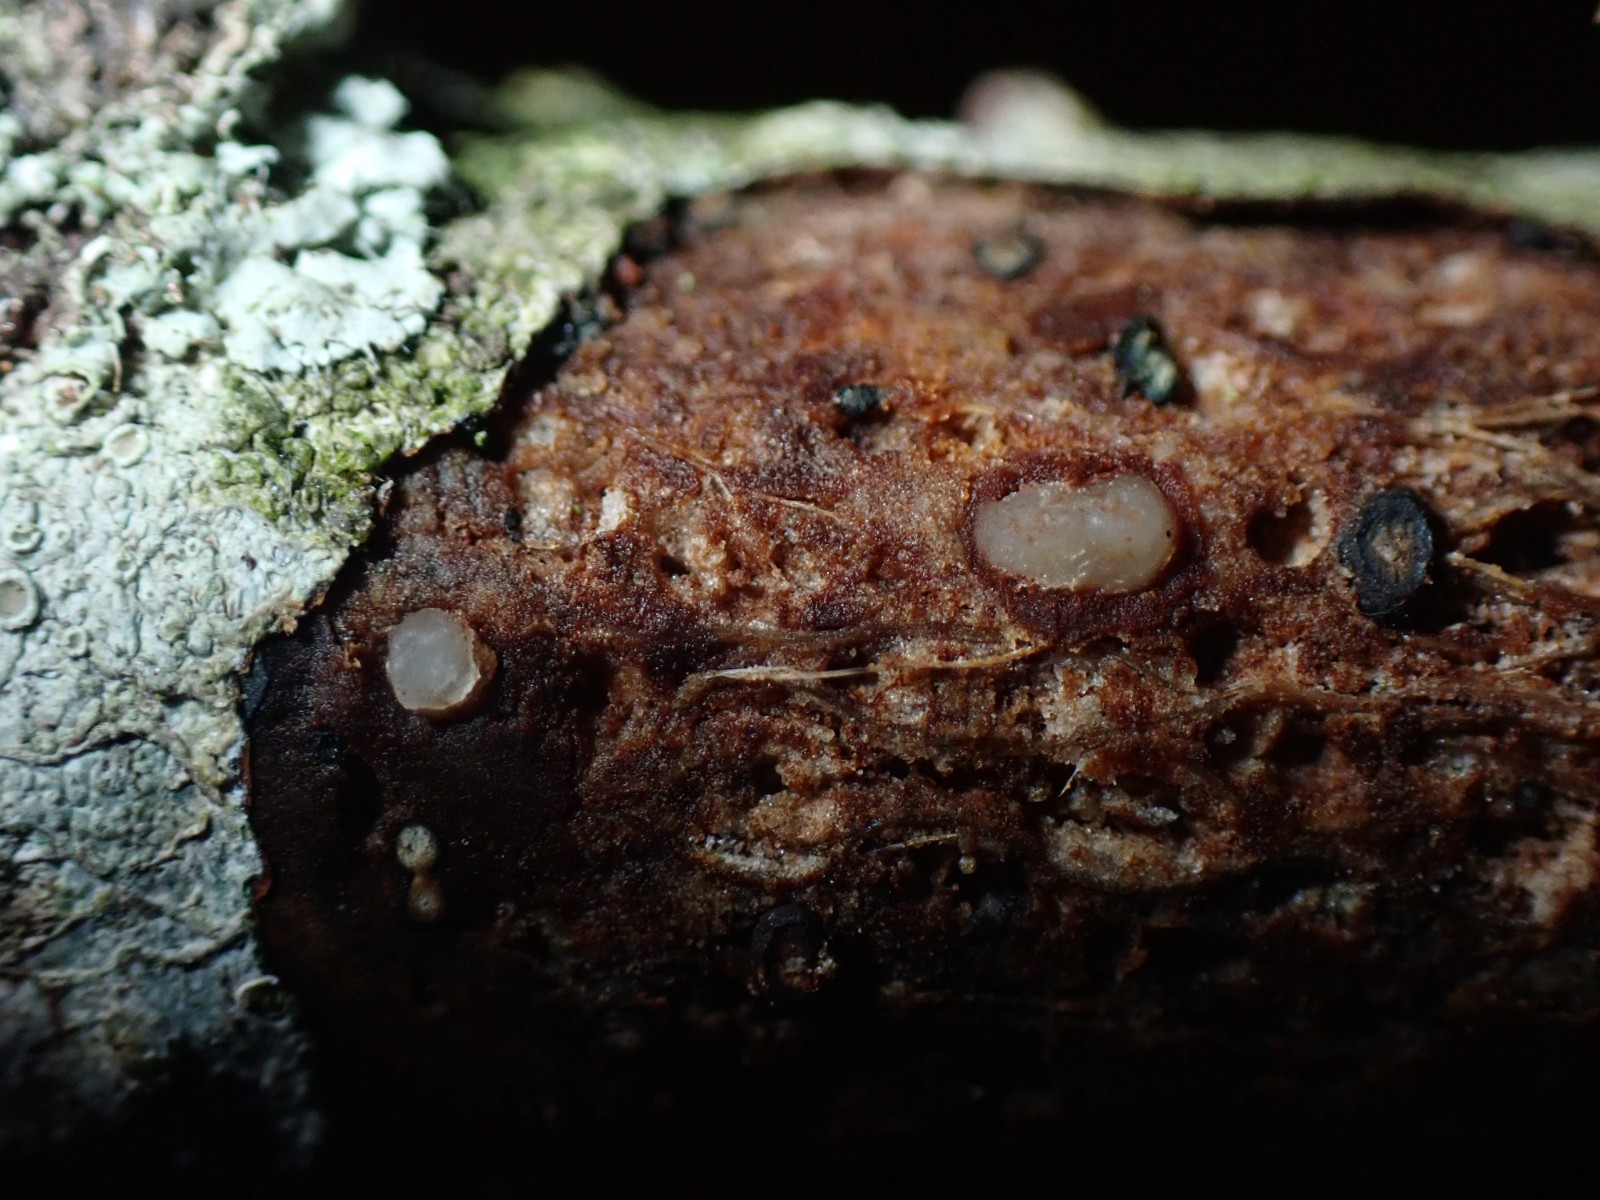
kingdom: Fungi
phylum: Basidiomycota
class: Pucciniomycetes
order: Platygloeales
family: Platygloeaceae
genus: Platygloea
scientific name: Platygloea disciformis
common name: linde-slimklat
